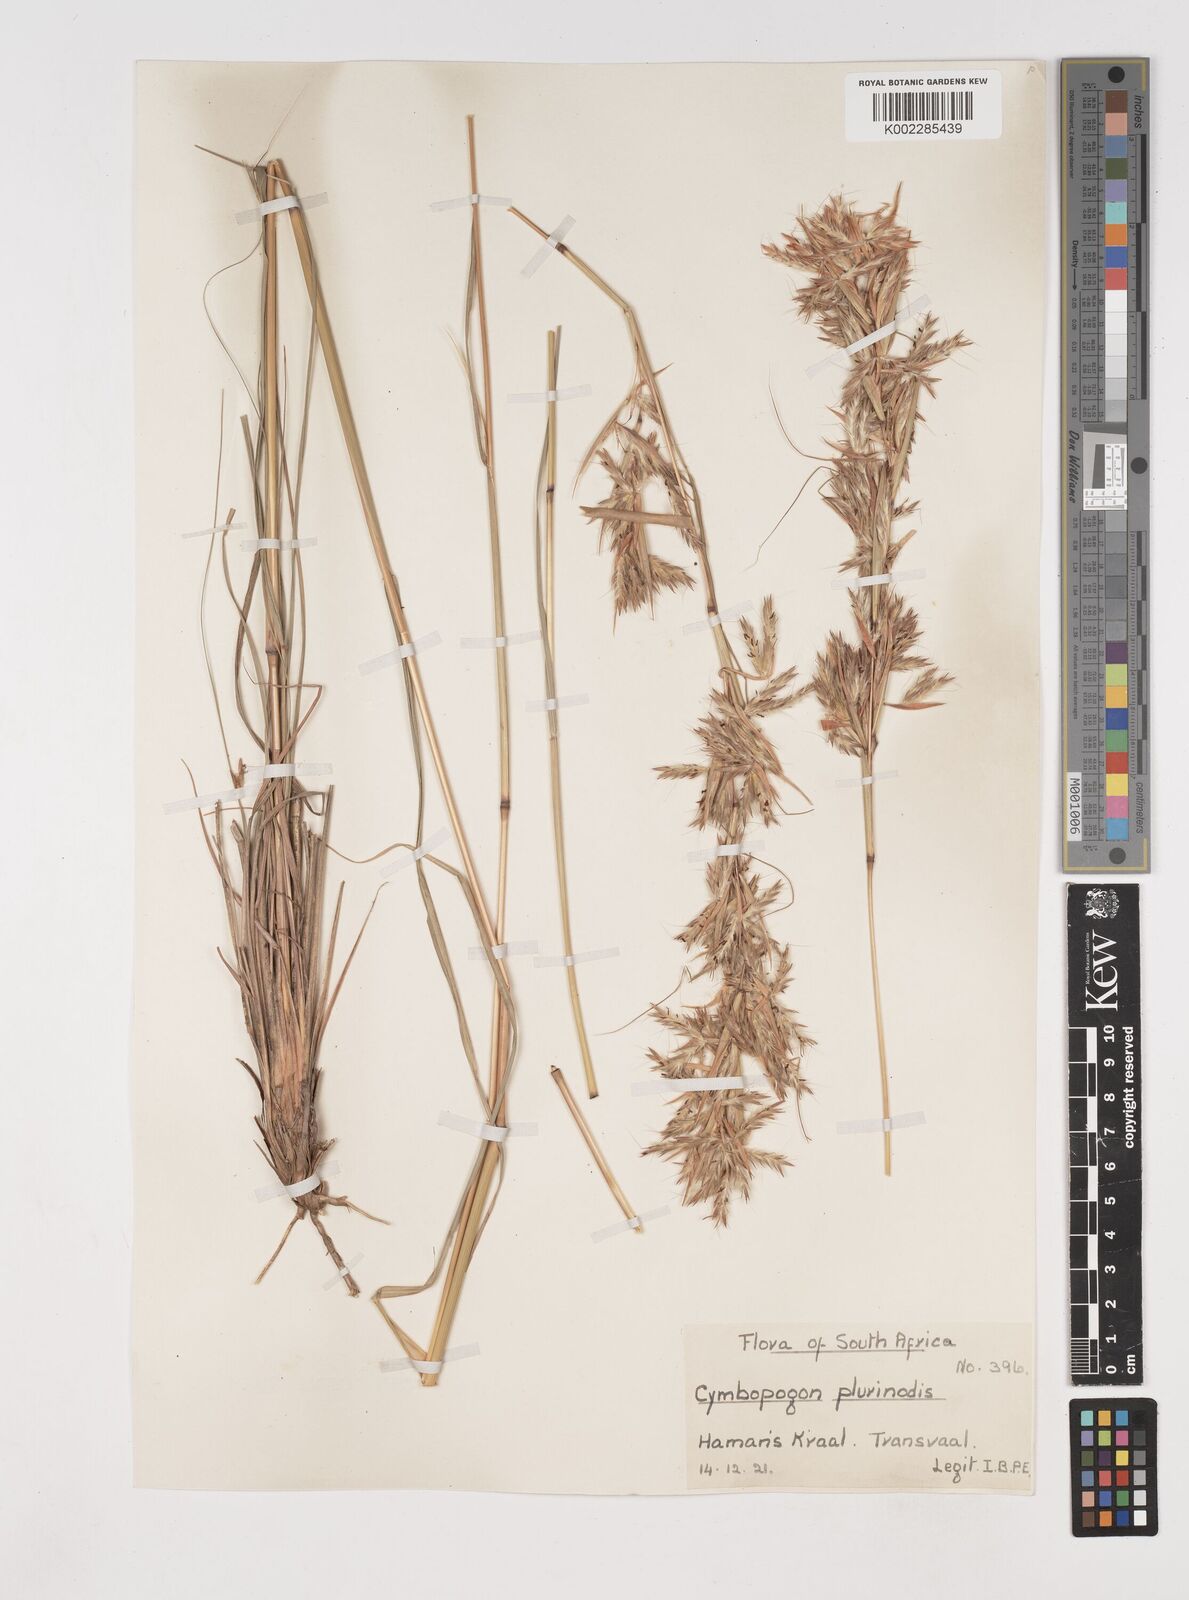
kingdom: Plantae
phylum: Tracheophyta
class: Liliopsida
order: Poales
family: Poaceae
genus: Cymbopogon
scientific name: Cymbopogon
